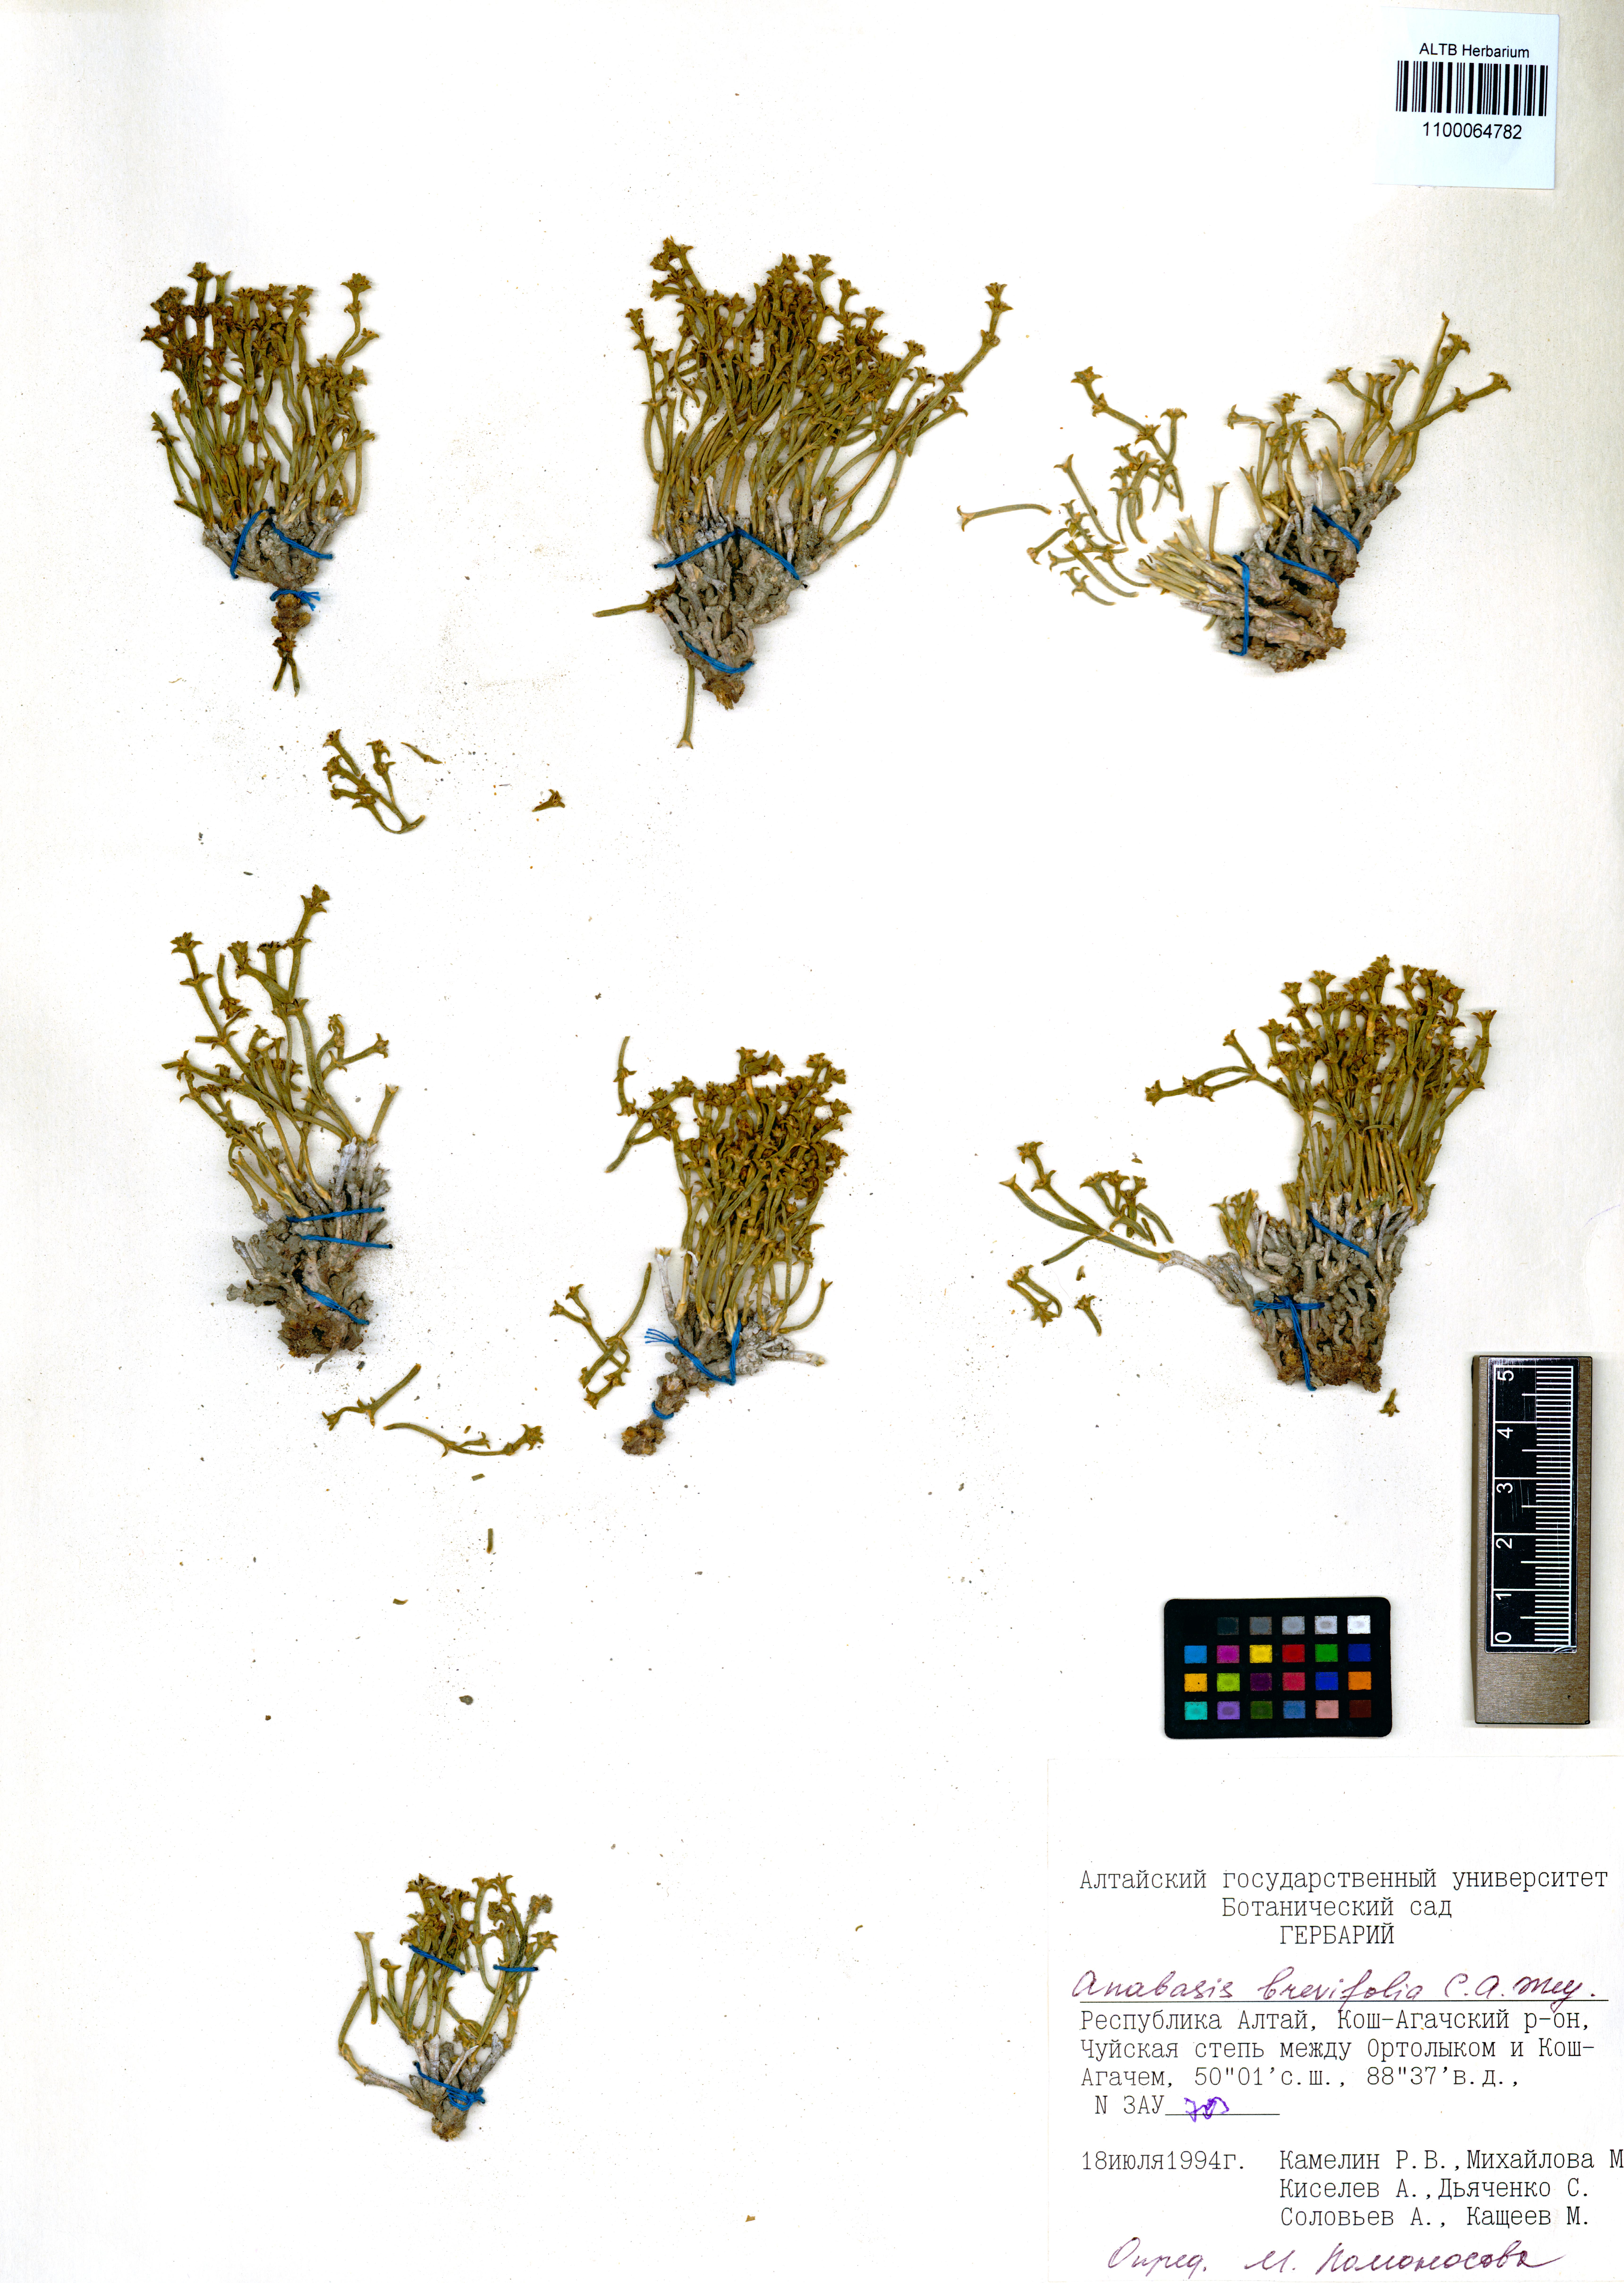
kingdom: Plantae
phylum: Tracheophyta
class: Magnoliopsida
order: Caryophyllales
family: Amaranthaceae
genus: Anabasis
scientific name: Anabasis brevifolia
